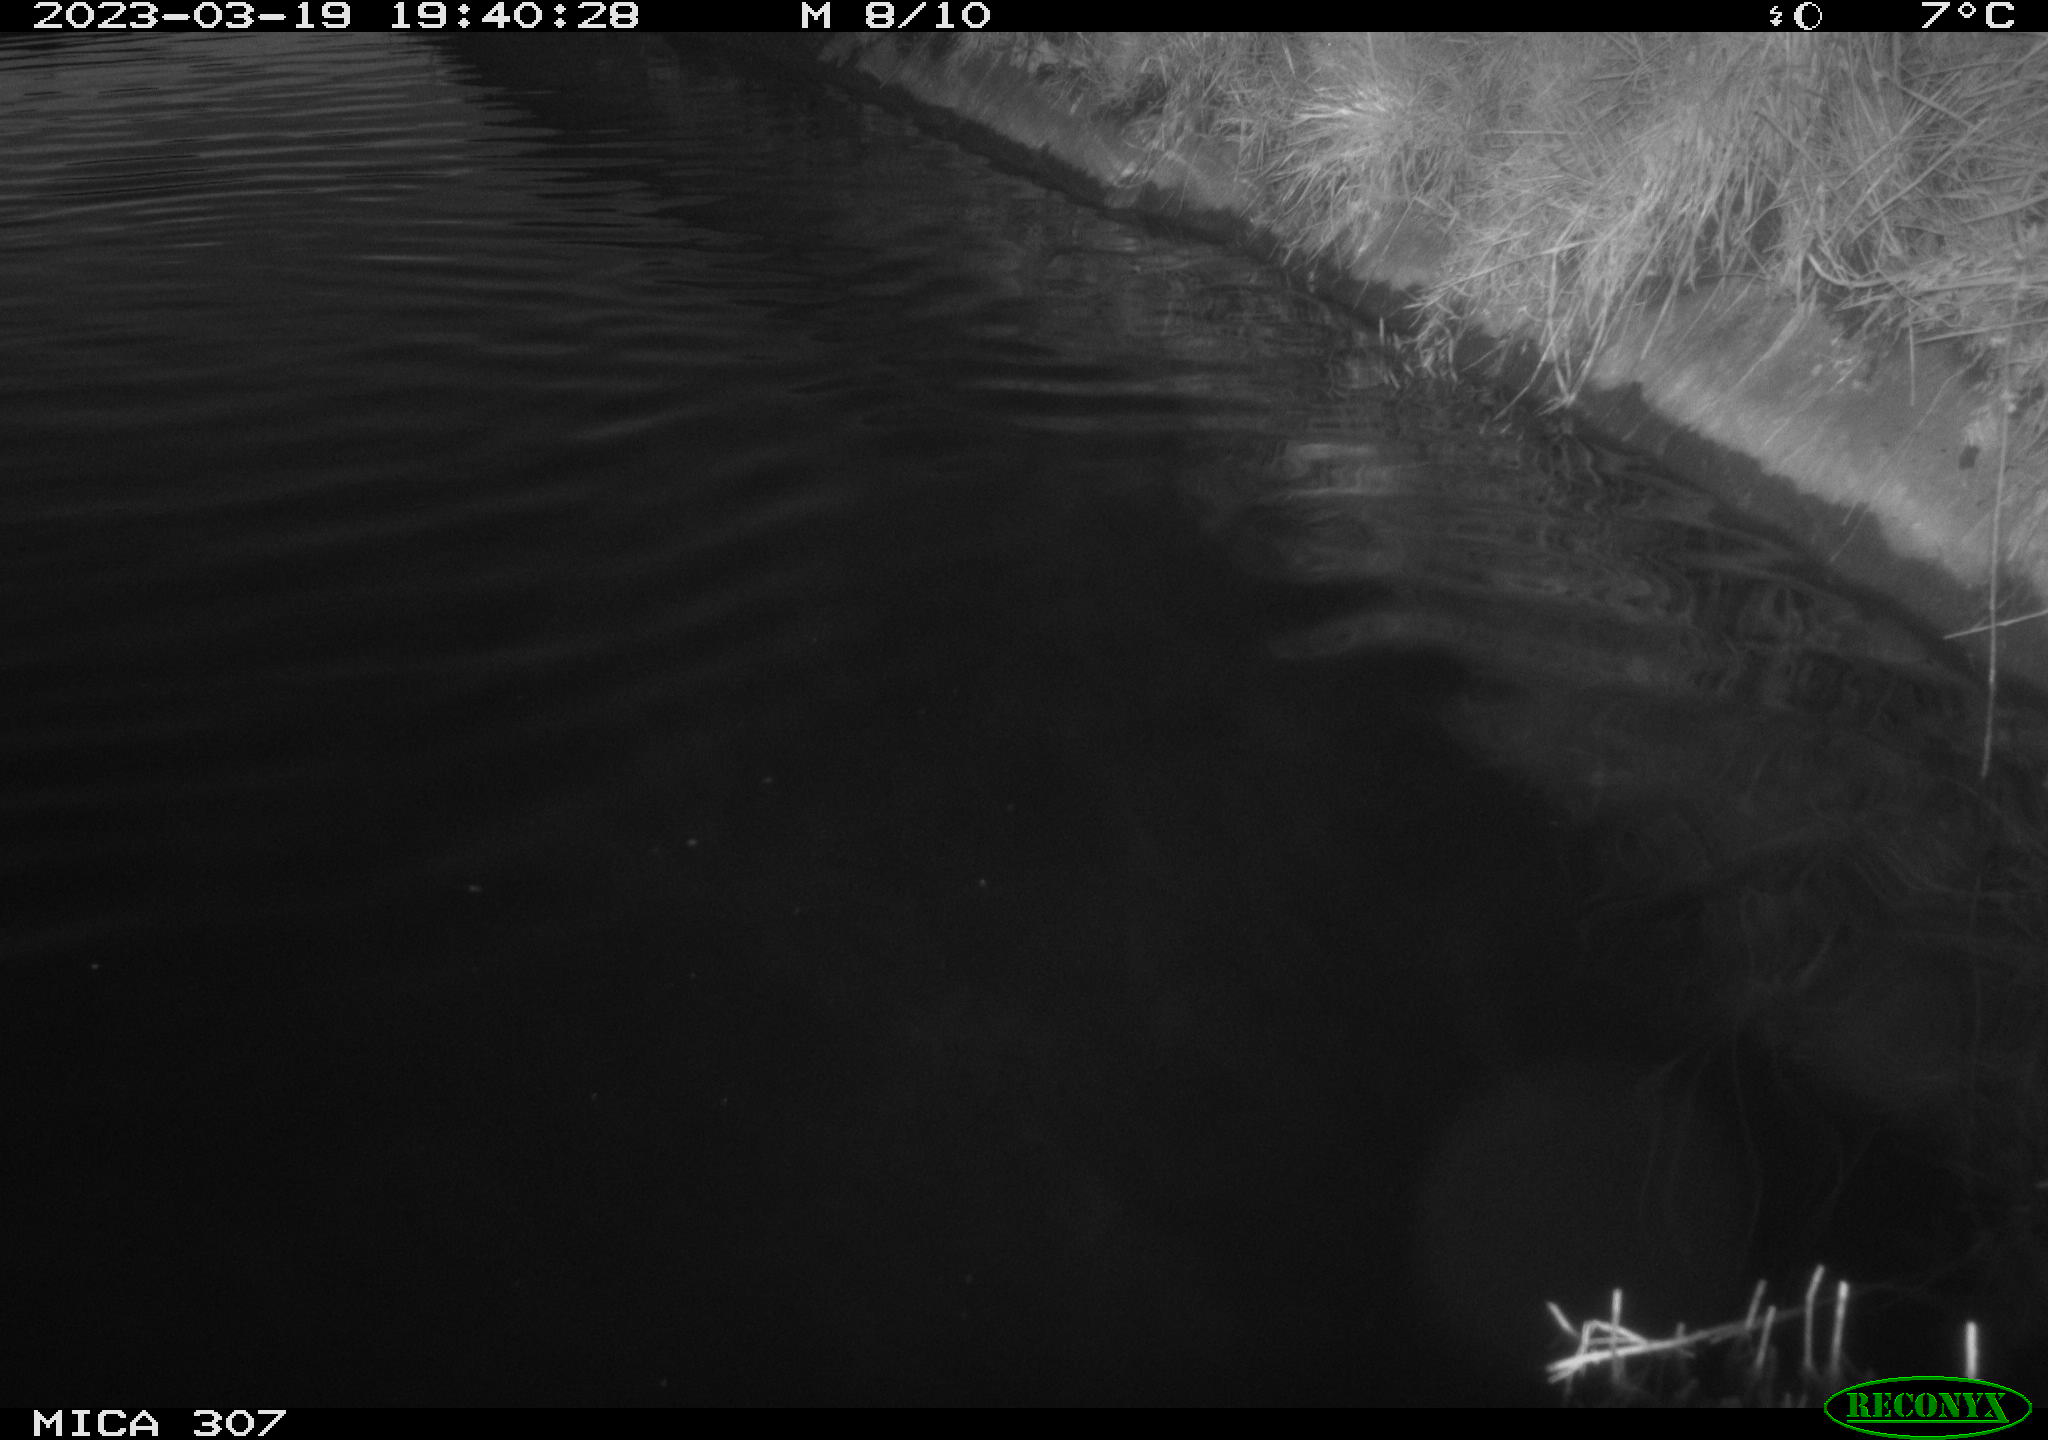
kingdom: Animalia
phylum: Chordata
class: Aves
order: Anseriformes
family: Anatidae
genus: Anas
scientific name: Anas
